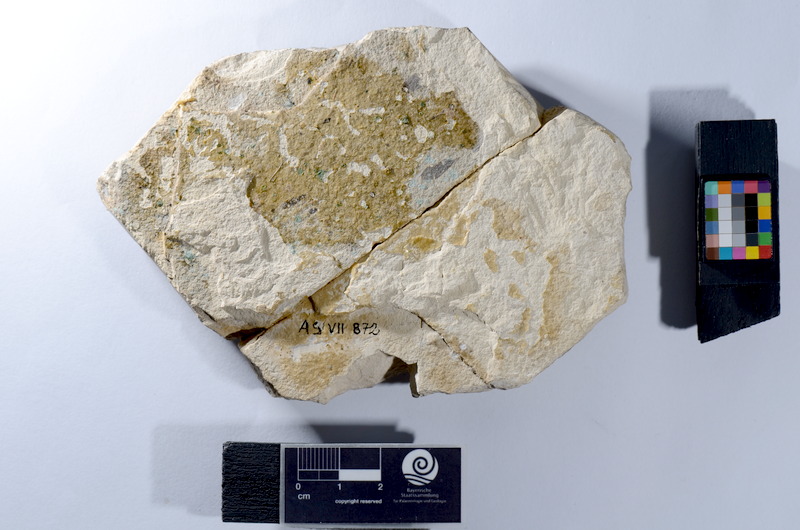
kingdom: Animalia
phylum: Chordata
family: Ankylophoridae
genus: Pholidophoristion
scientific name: Pholidophoristion micronyx
